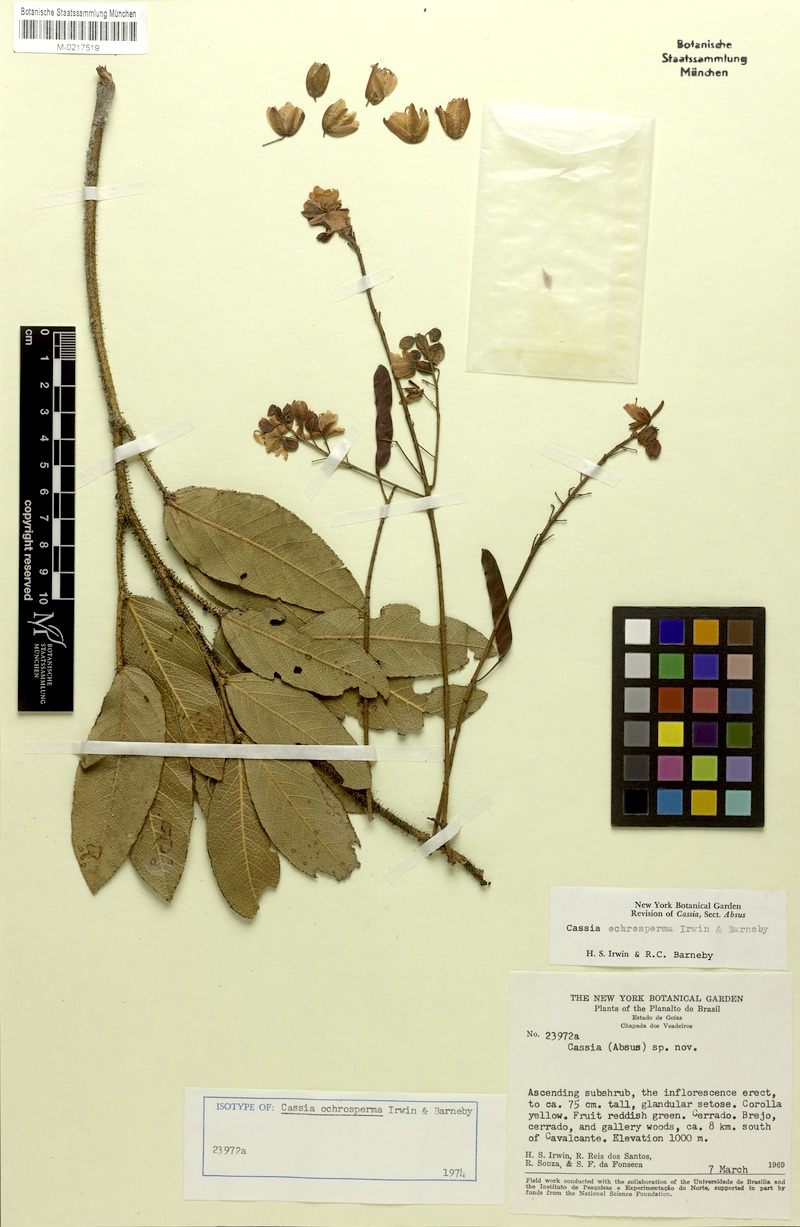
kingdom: Plantae
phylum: Tracheophyta
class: Magnoliopsida
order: Fabales
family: Fabaceae
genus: Chamaecrista
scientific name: Chamaecrista ochrosperma
